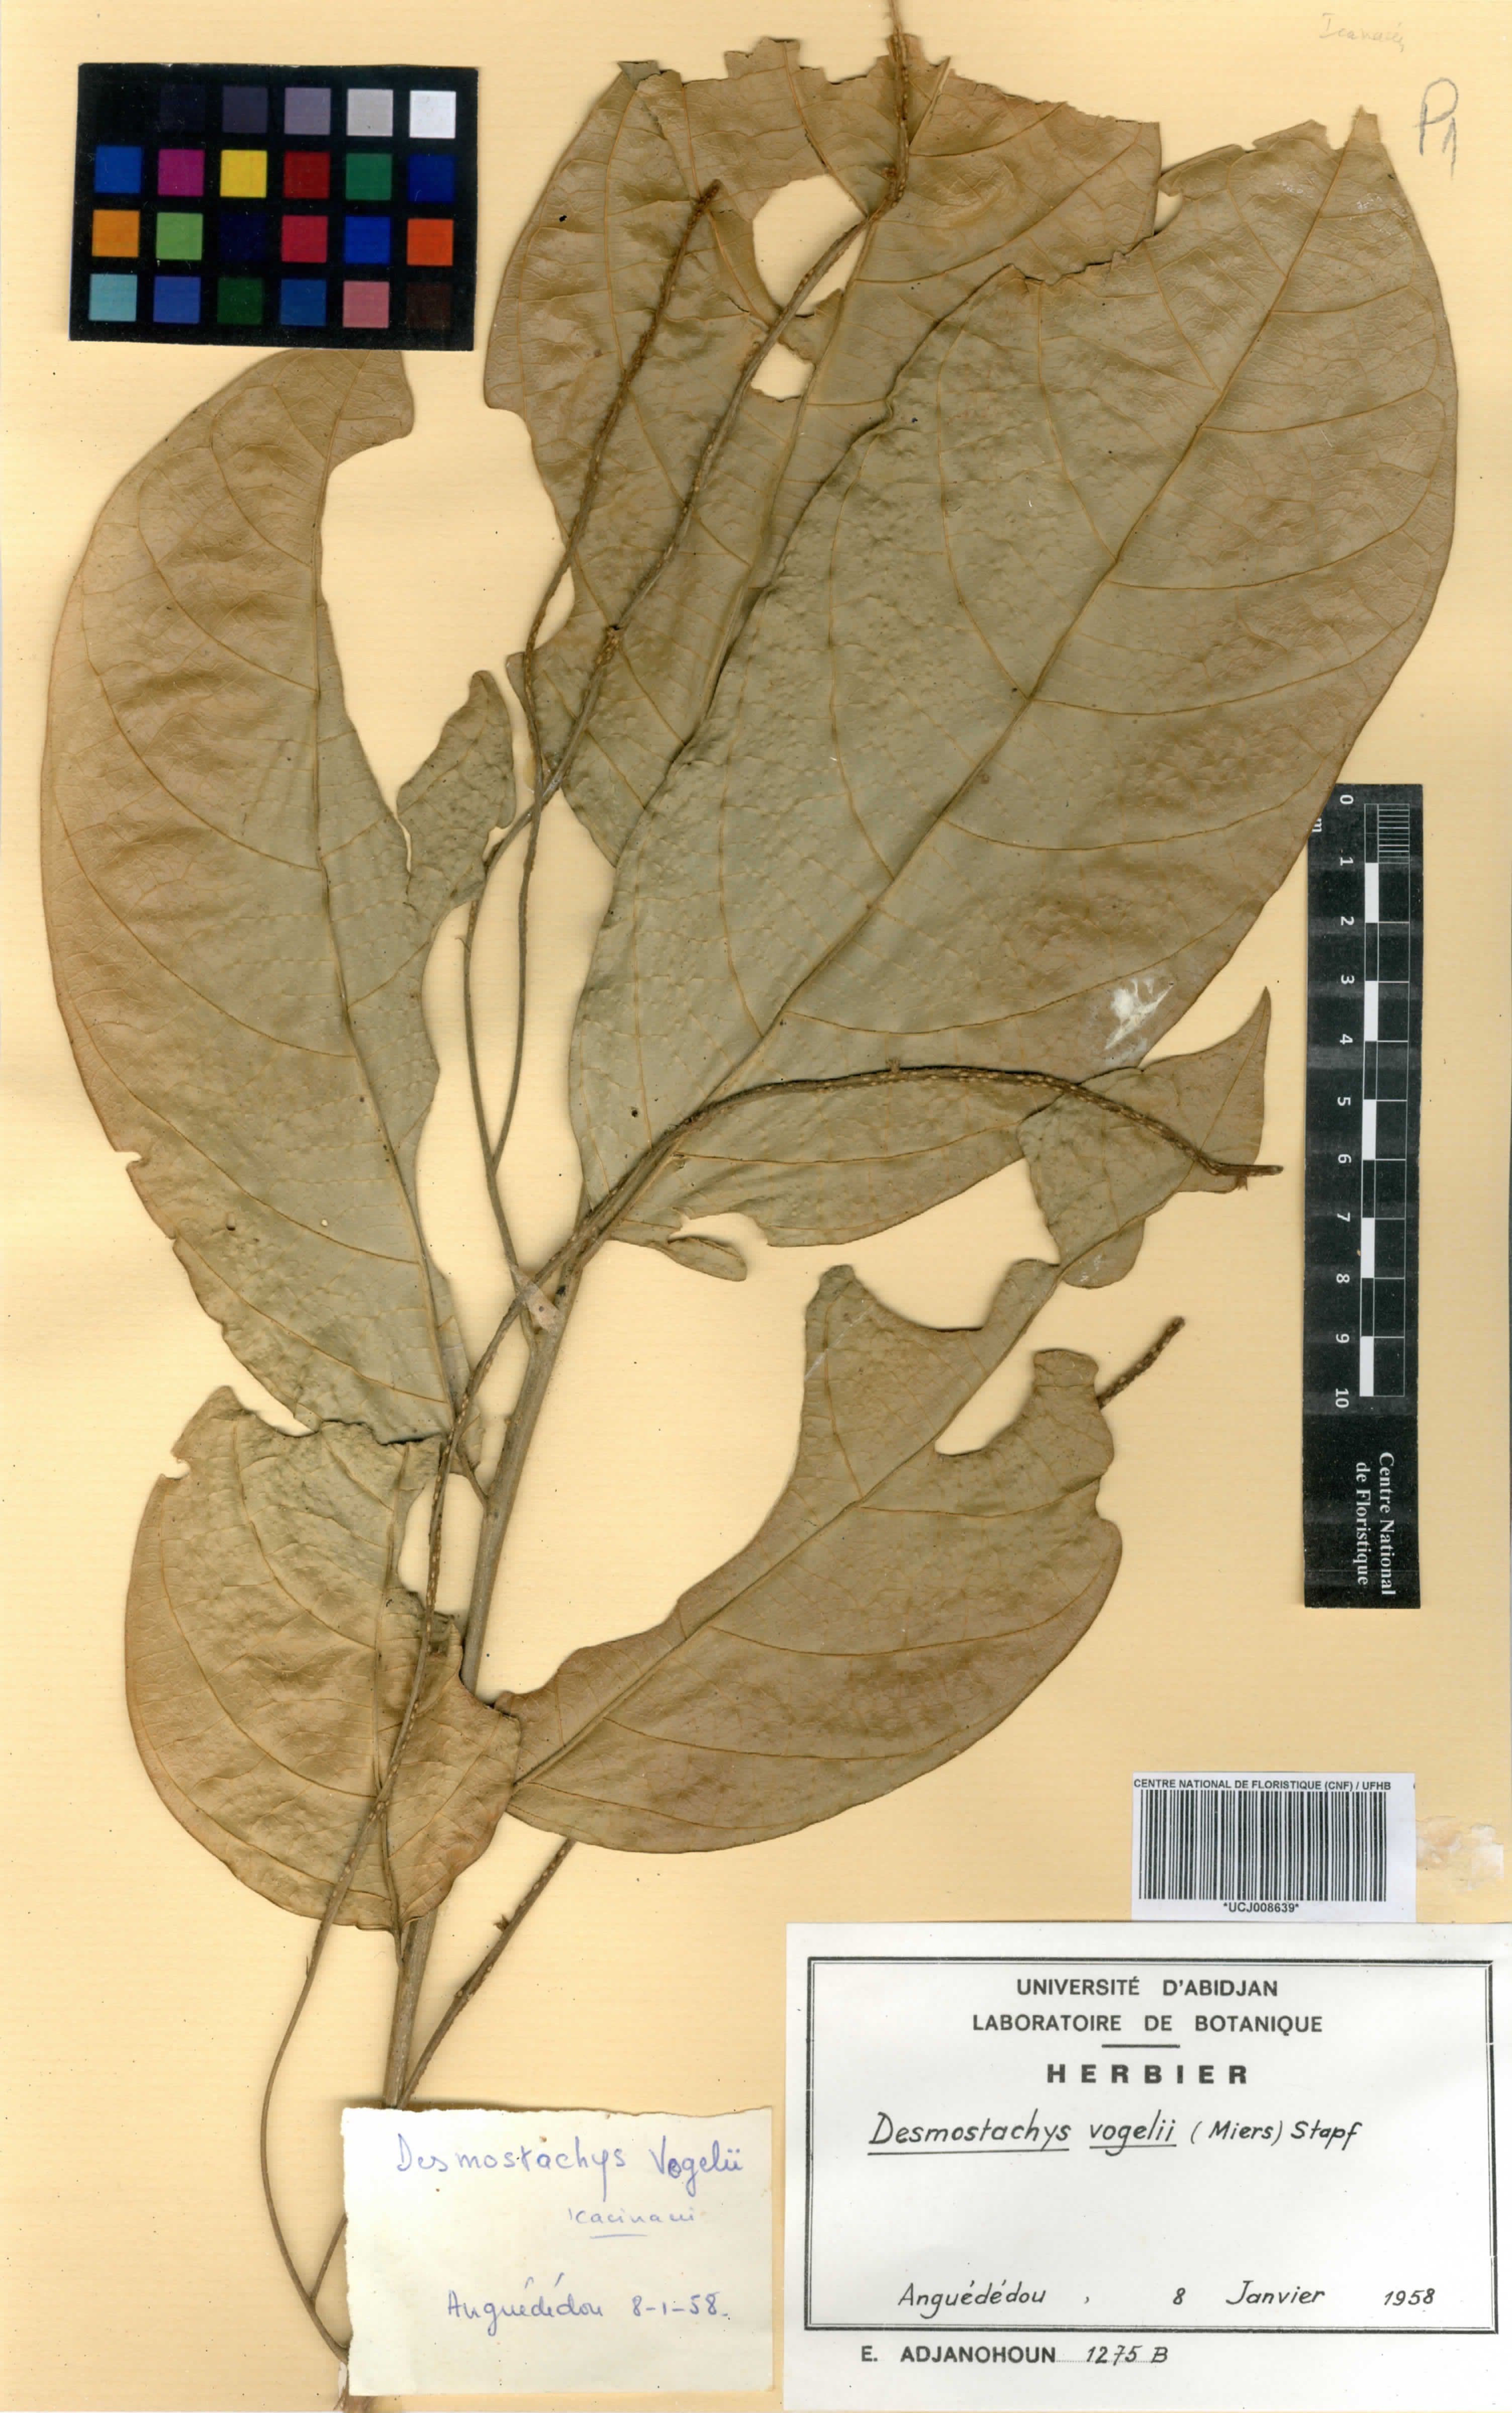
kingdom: Plantae
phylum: Tracheophyta
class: Magnoliopsida
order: Icacinales
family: Icacinaceae
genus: Vadensea
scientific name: Vadensea vogelii
